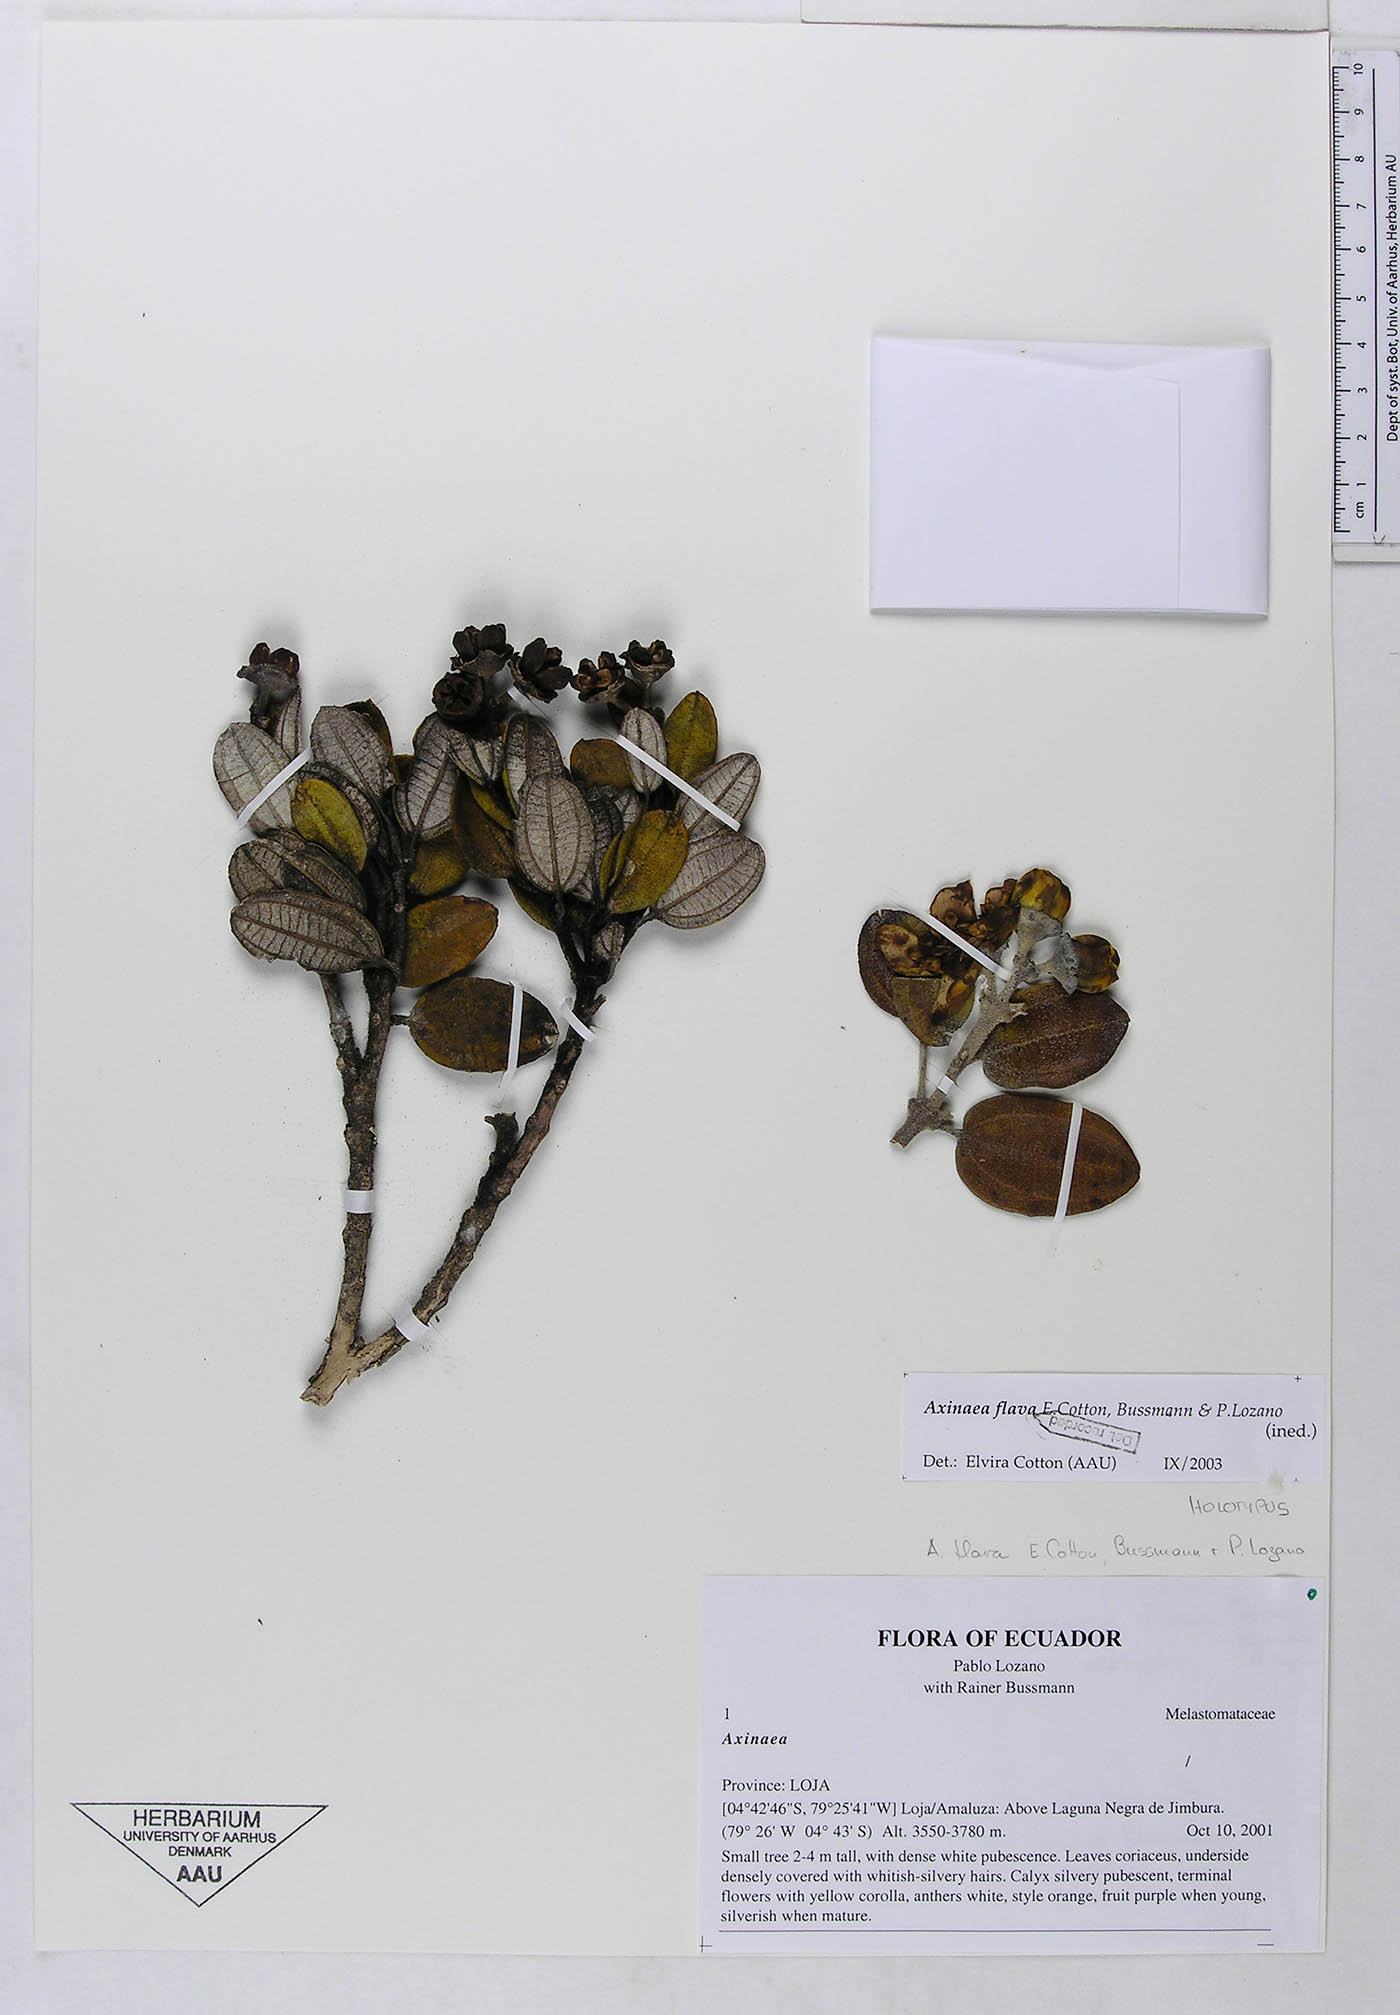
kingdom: Plantae
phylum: Tracheophyta
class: Magnoliopsida
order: Myrtales
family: Melastomataceae
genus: Axinaea
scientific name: Axinaea flava
